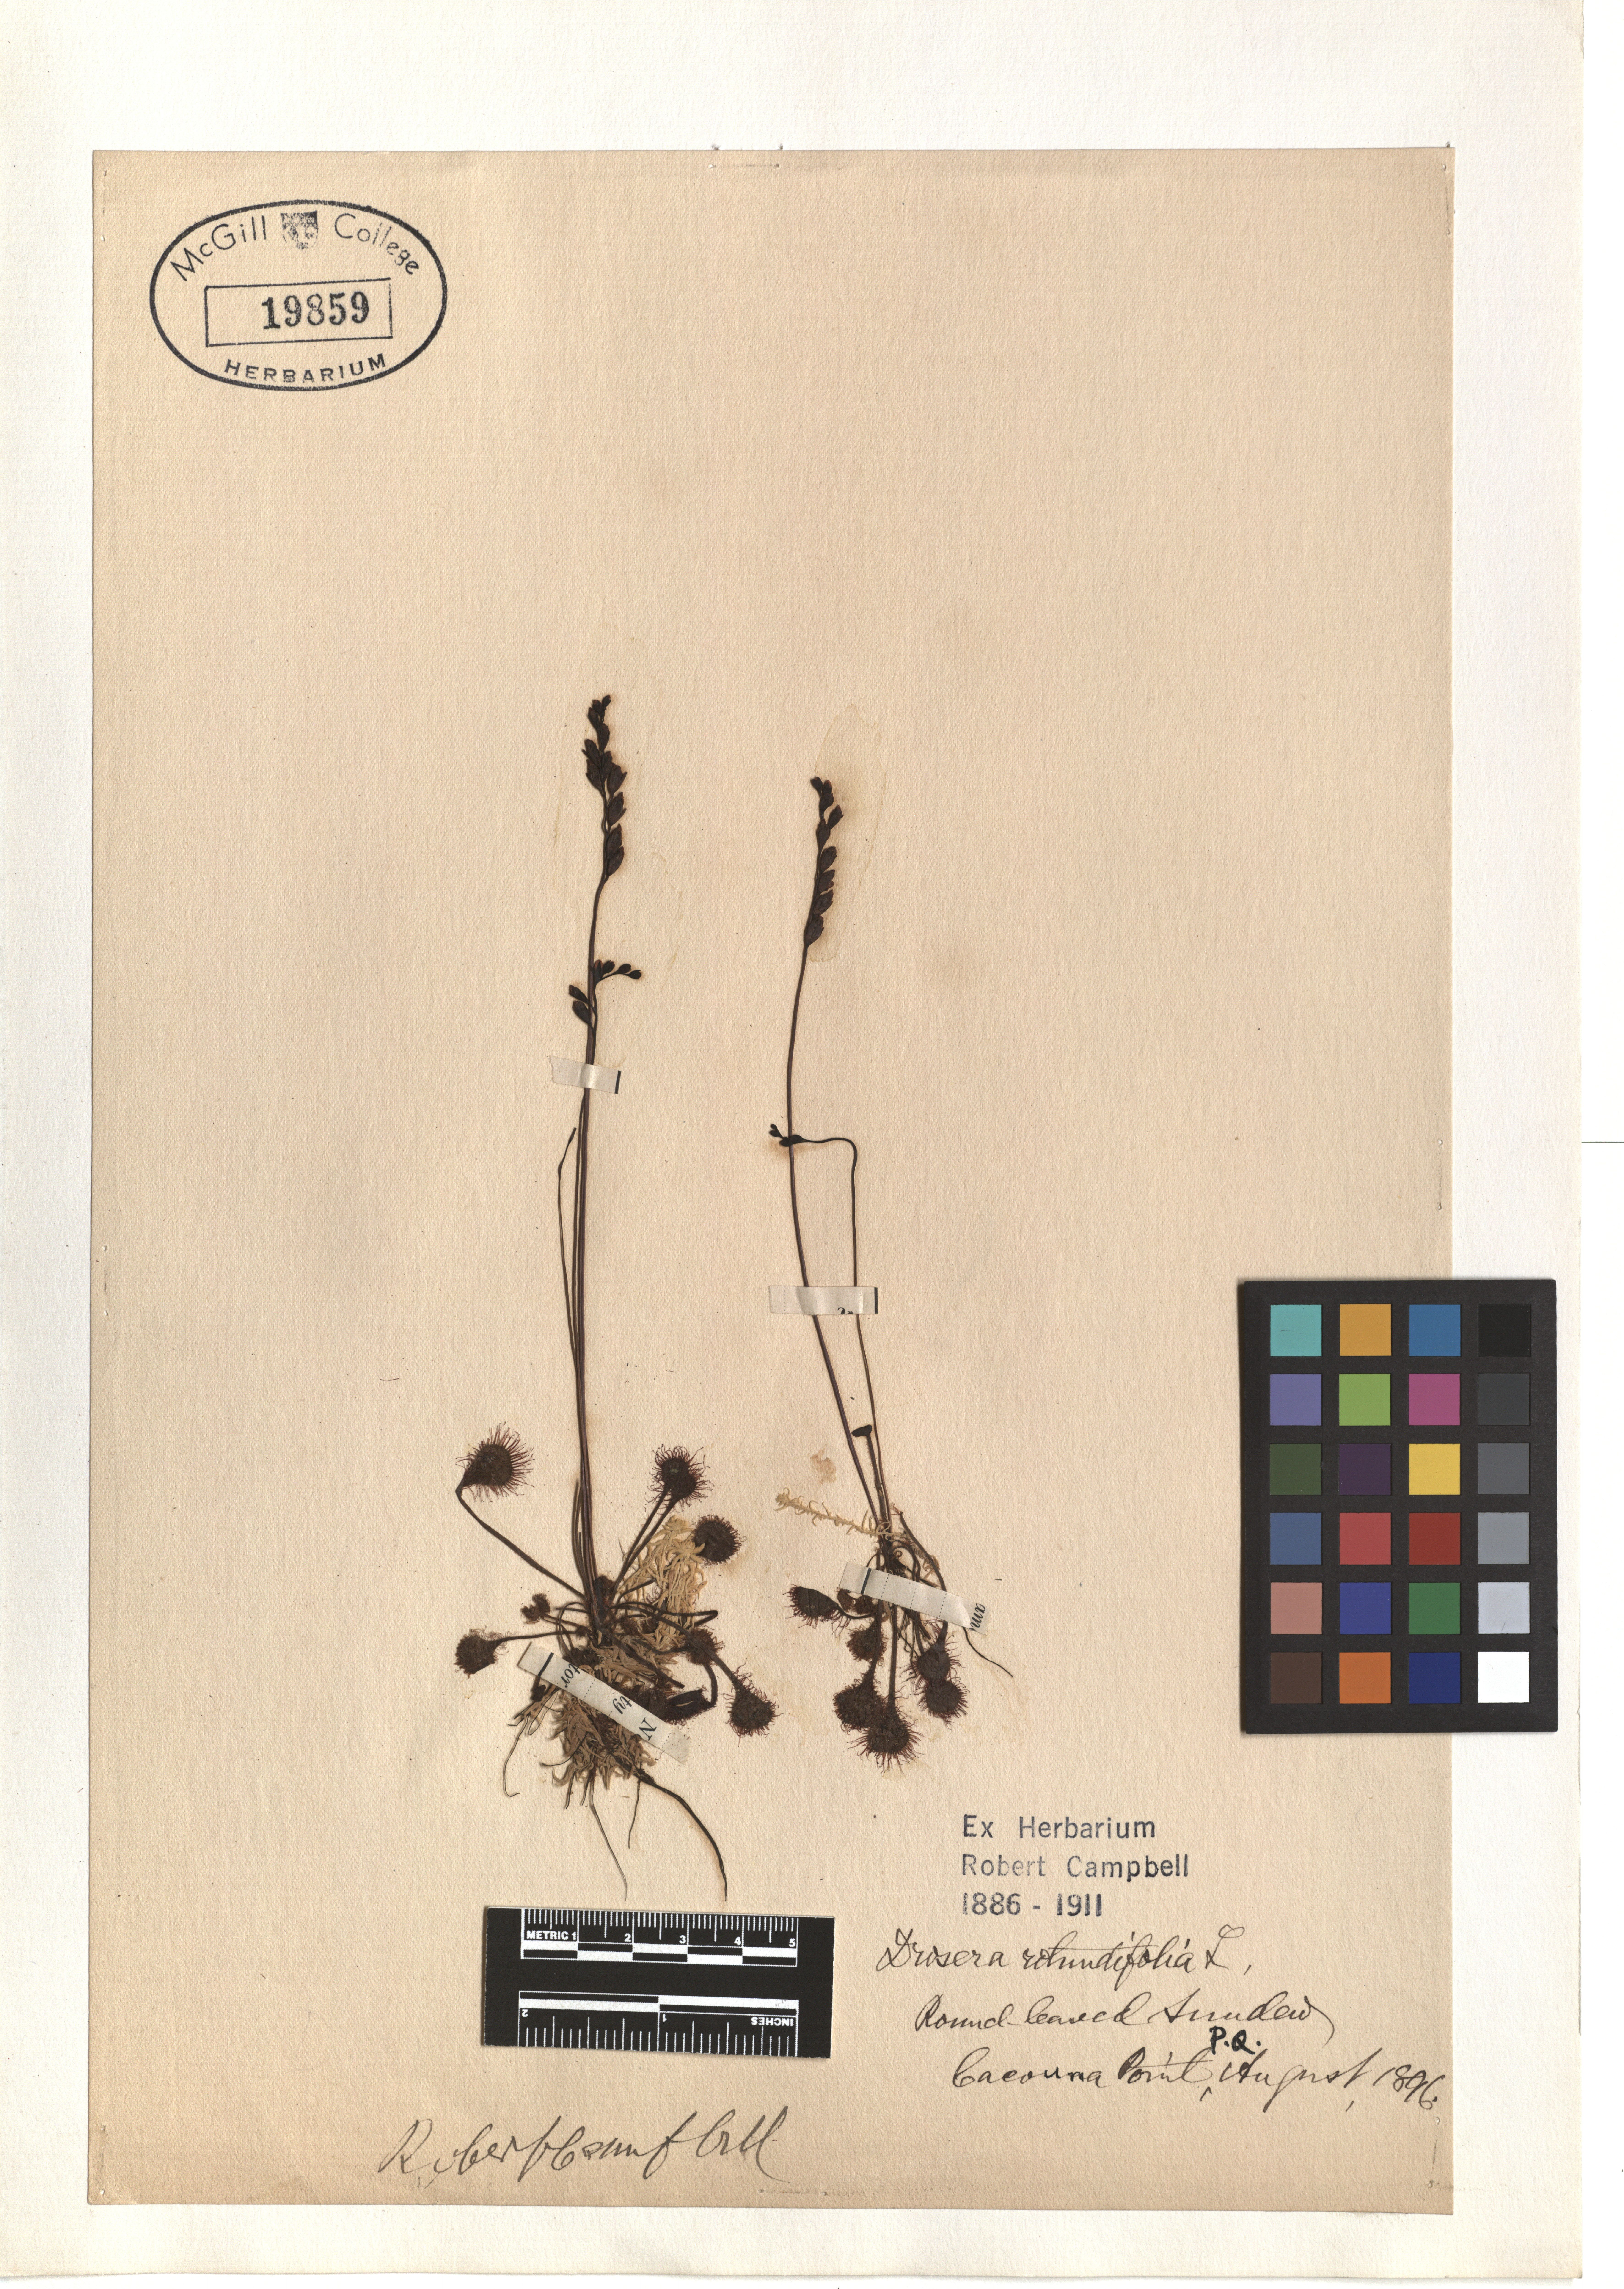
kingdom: Plantae
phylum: Tracheophyta
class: Magnoliopsida
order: Caryophyllales
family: Droseraceae
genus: Drosera
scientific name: Drosera rotundifolia
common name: Round-leaved sundew
